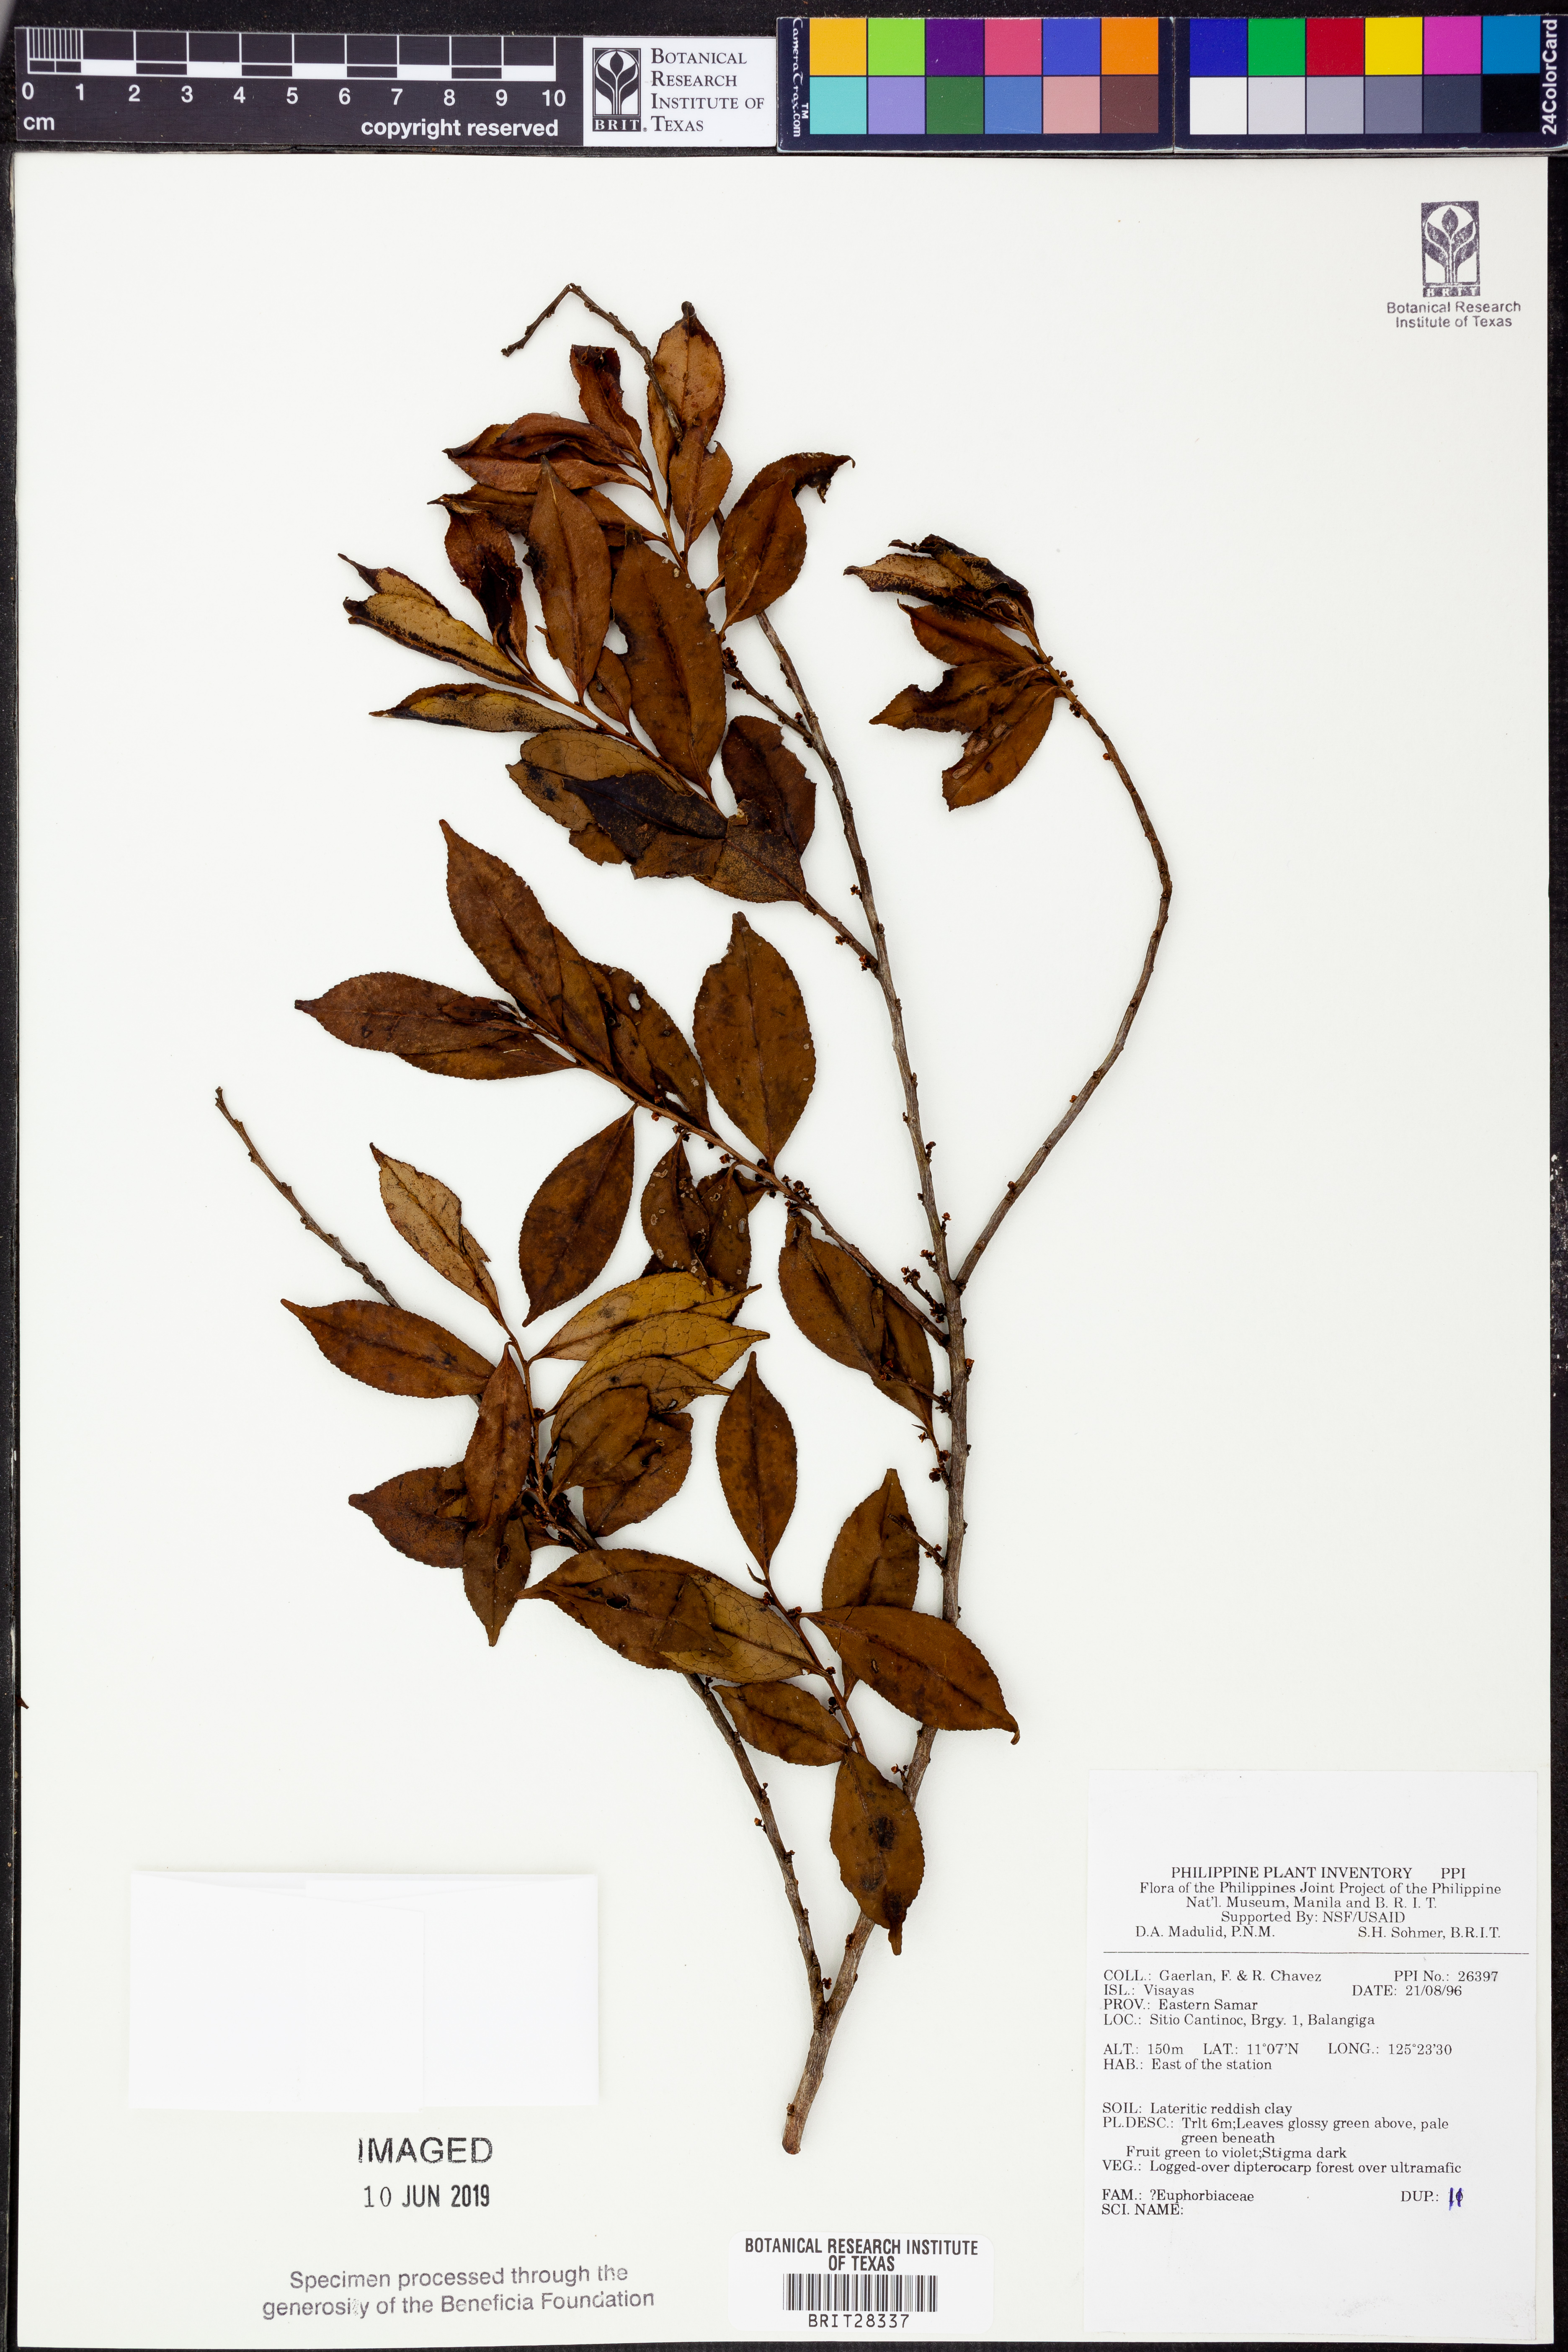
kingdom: Plantae
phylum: Tracheophyta
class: Magnoliopsida
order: Malpighiales
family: Euphorbiaceae
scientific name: Euphorbiaceae
